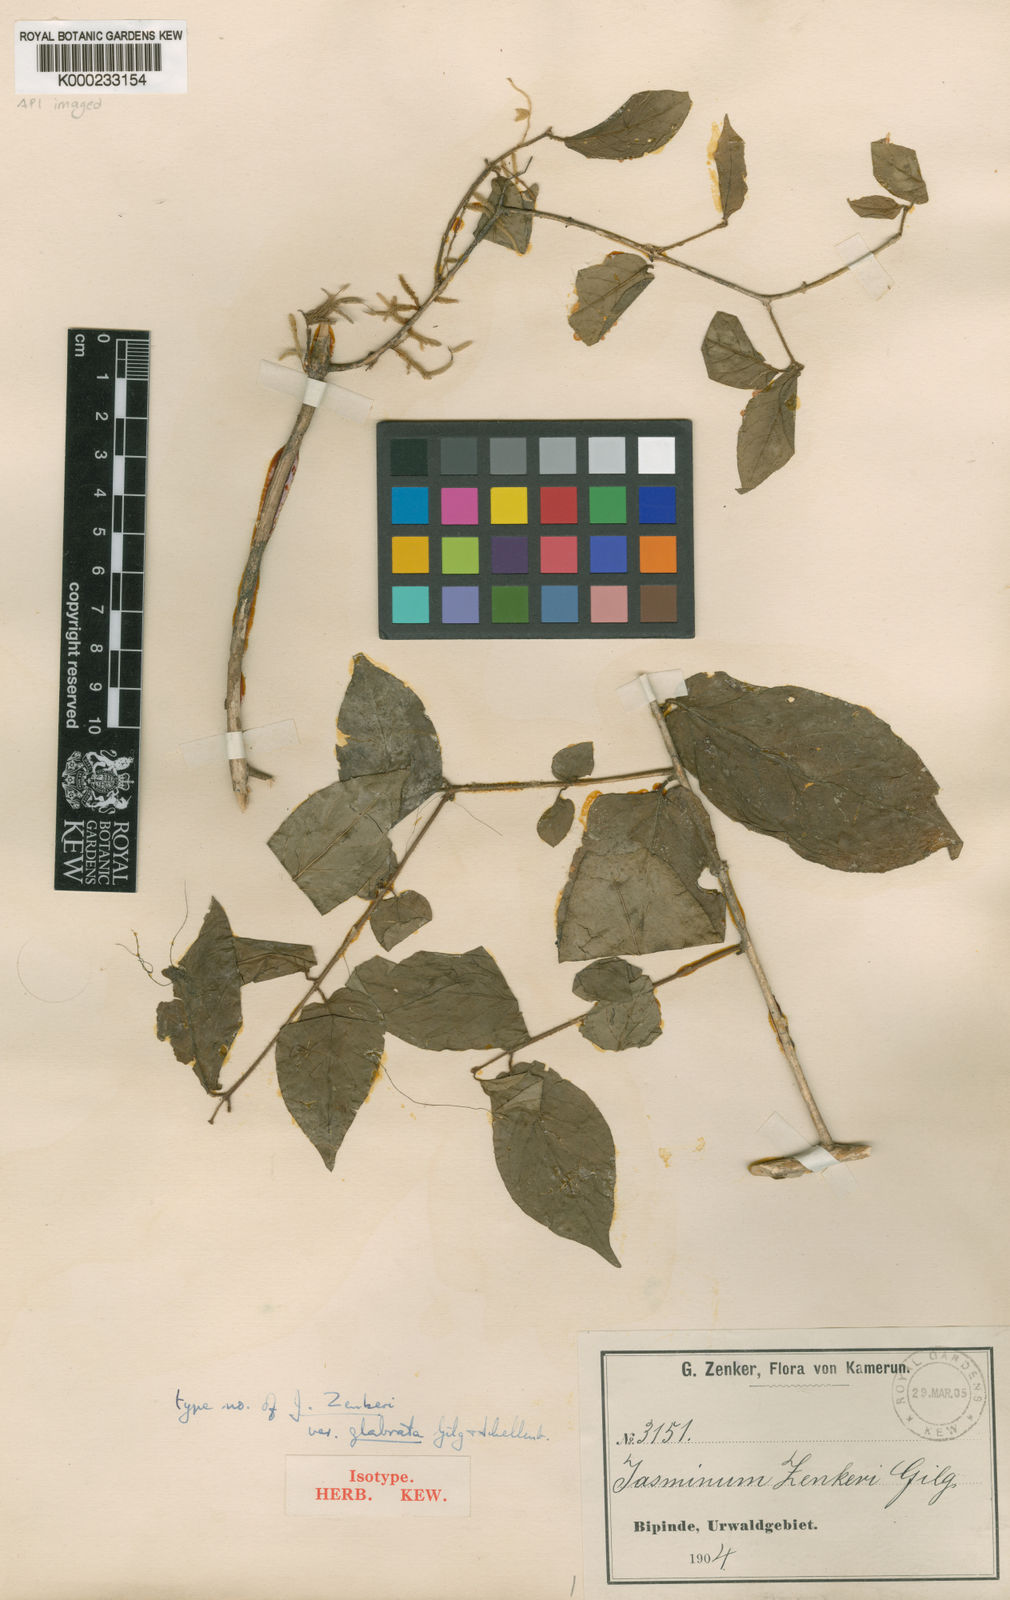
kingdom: Plantae
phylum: Tracheophyta
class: Magnoliopsida
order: Lamiales
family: Oleaceae
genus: Jasminum
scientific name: Jasminum preussii
